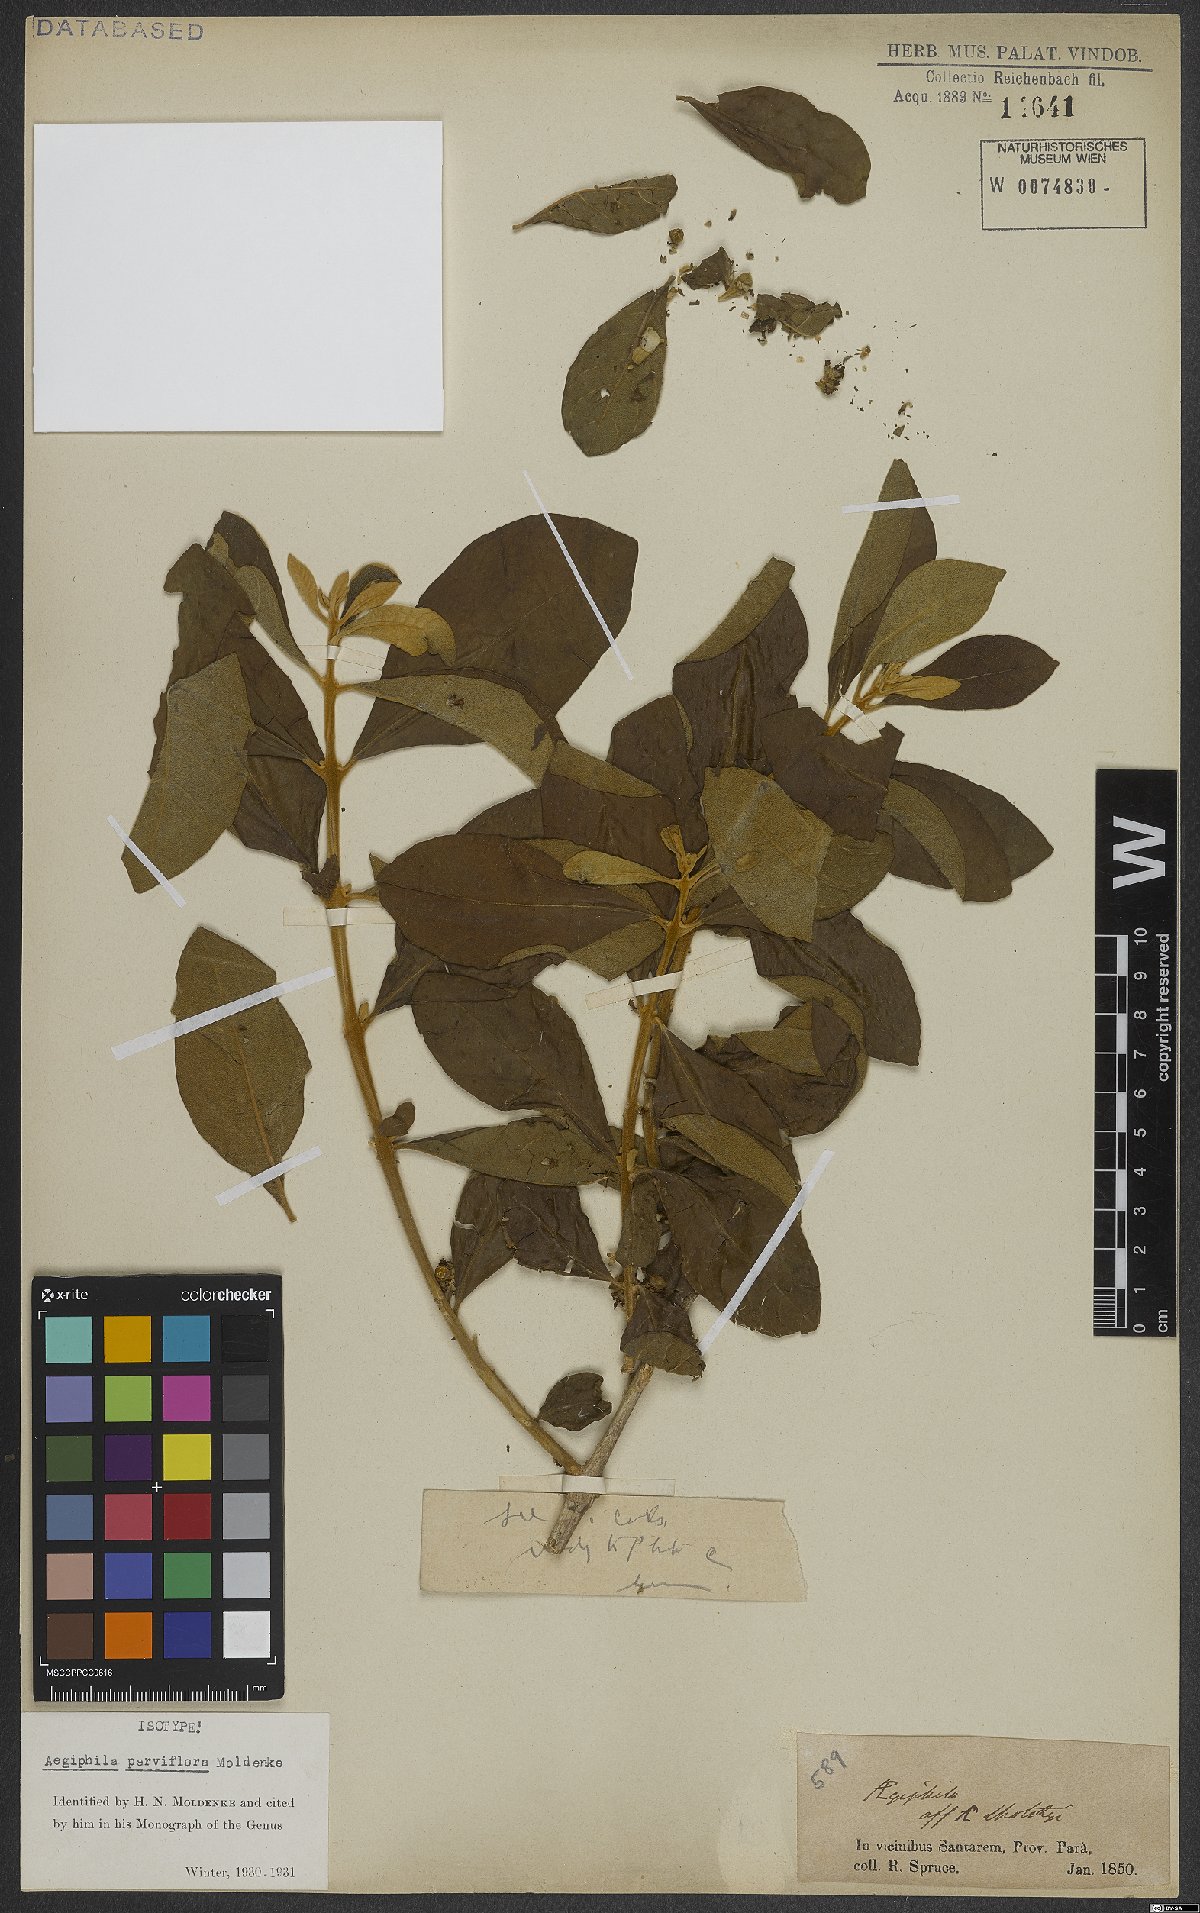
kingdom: Plantae
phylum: Tracheophyta
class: Magnoliopsida
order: Lamiales
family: Lamiaceae
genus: Aegiphila
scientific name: Aegiphila integrifolia
